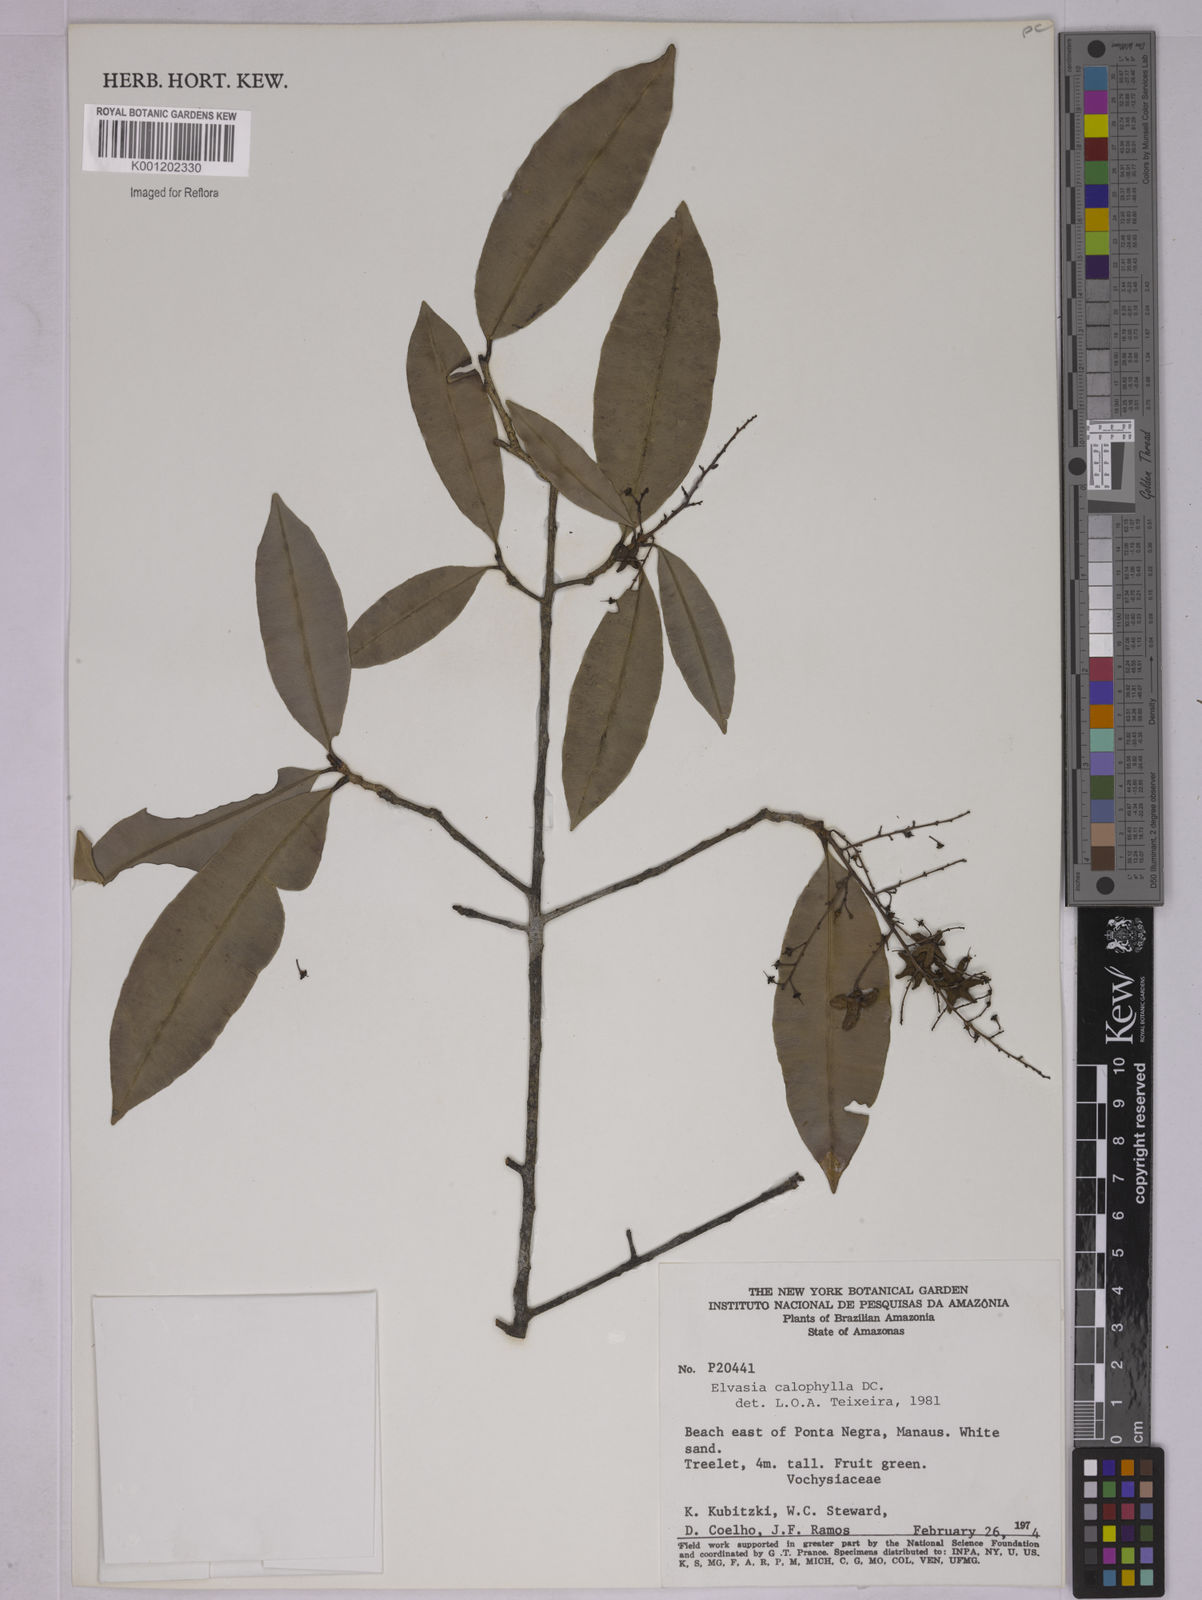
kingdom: Plantae
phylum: Tracheophyta
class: Magnoliopsida
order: Malpighiales
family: Ochnaceae
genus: Elvasia
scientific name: Elvasia calophyllea
